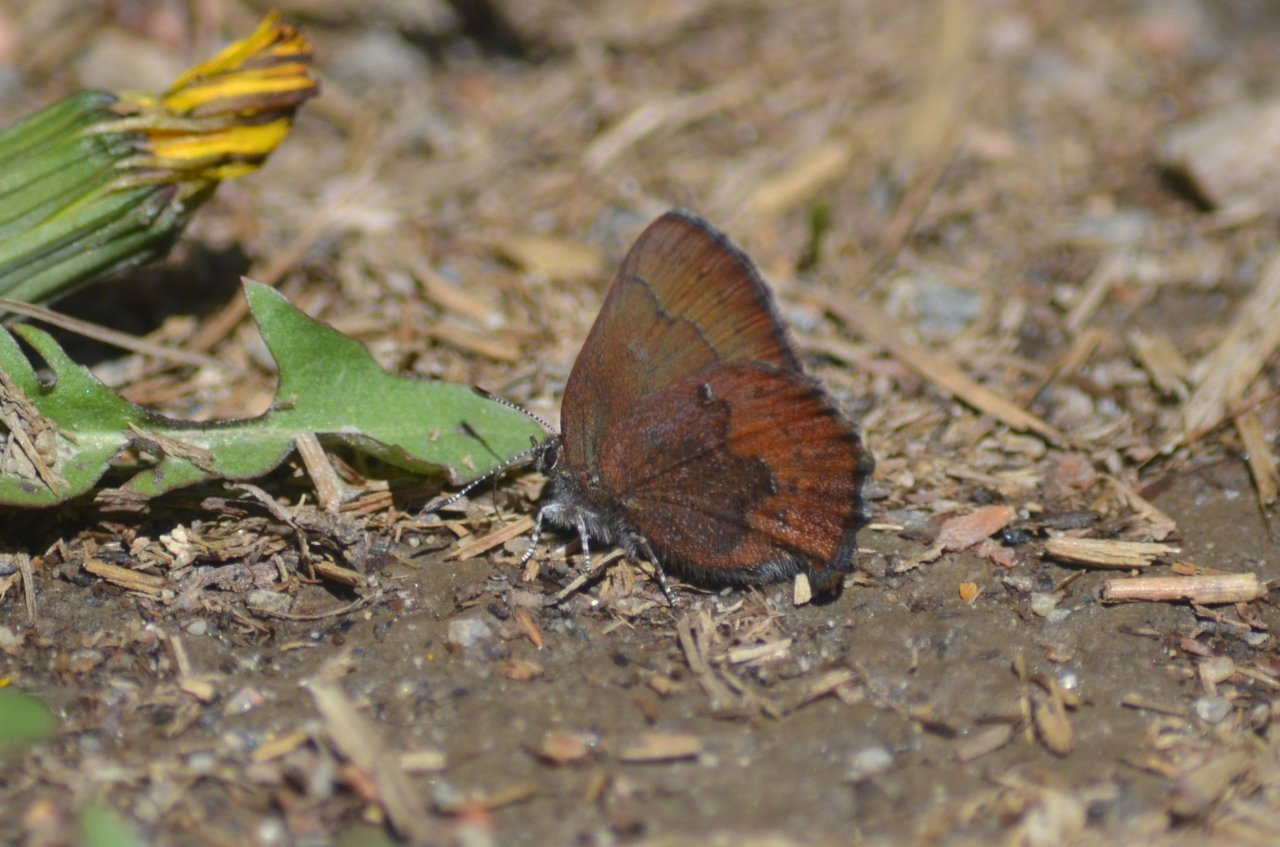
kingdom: Animalia
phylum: Arthropoda
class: Insecta
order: Lepidoptera
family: Lycaenidae
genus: Incisalia
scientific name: Incisalia irioides
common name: Brown Elfin
